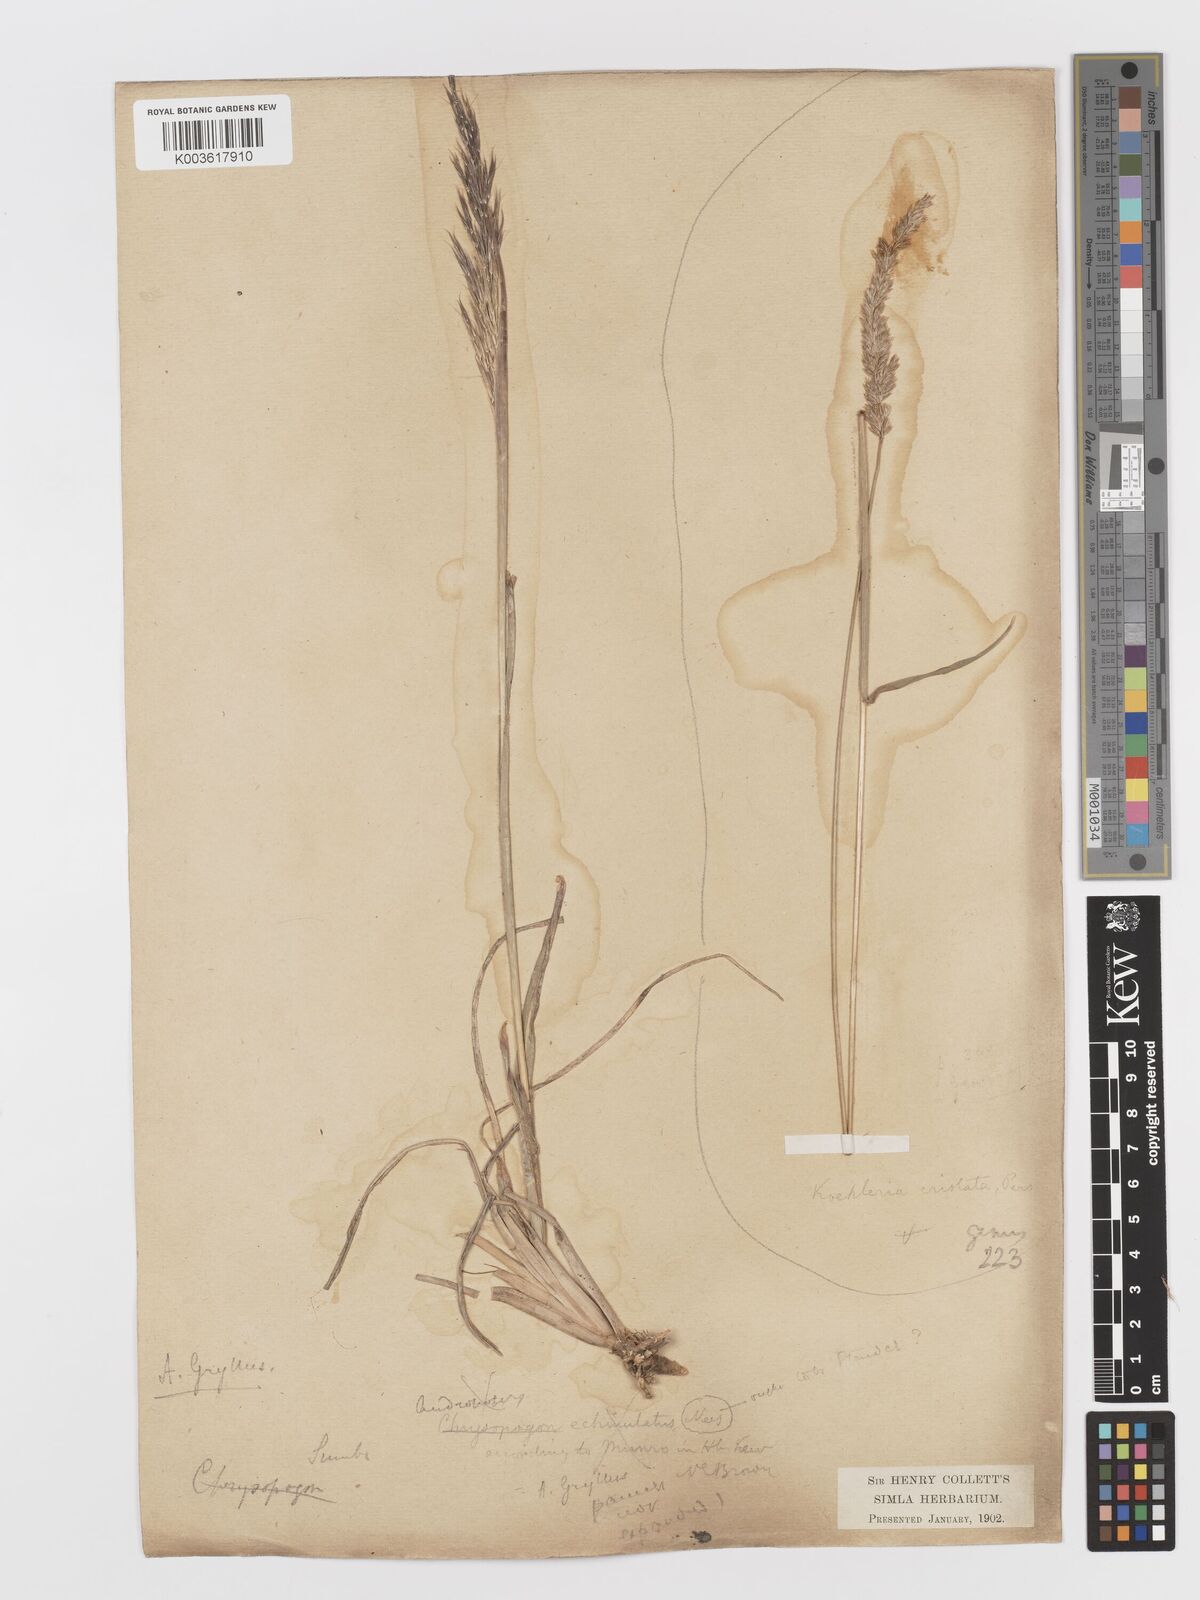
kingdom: Plantae
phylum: Tracheophyta
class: Liliopsida
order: Poales
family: Poaceae
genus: Koeleria
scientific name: Koeleria
